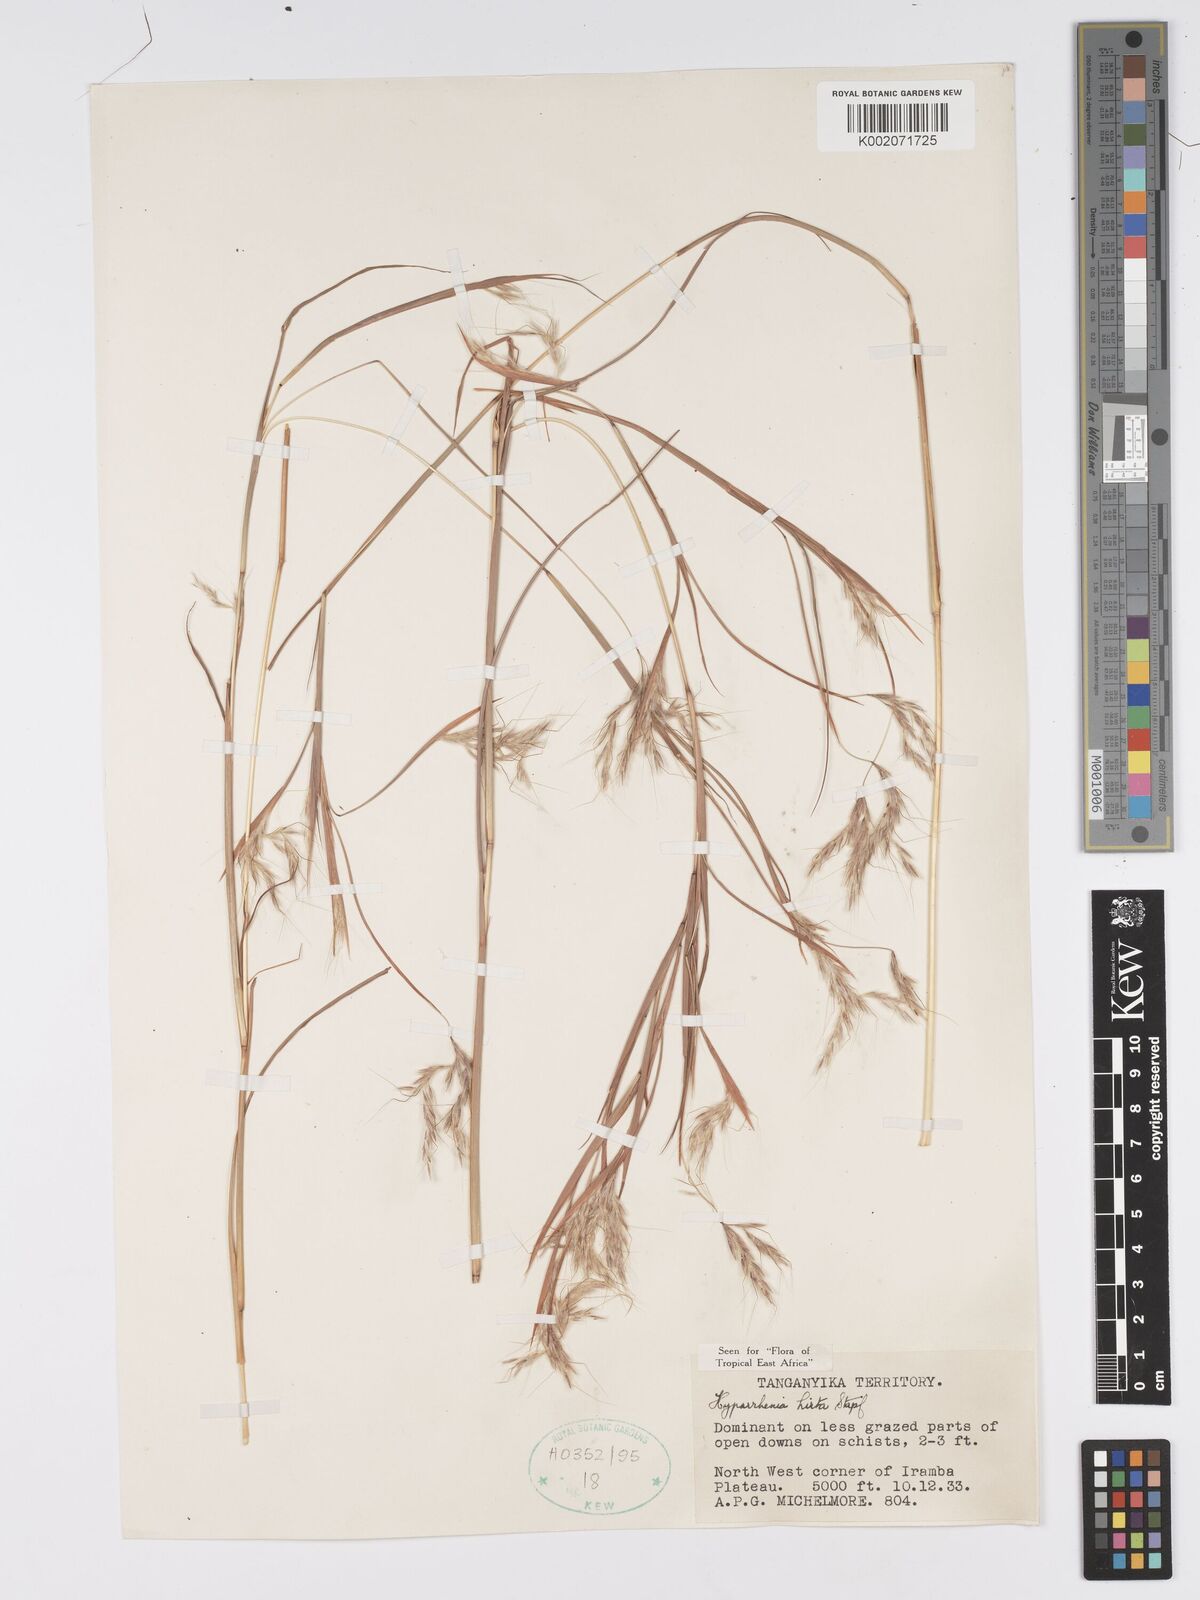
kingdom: Plantae
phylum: Tracheophyta
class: Liliopsida
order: Poales
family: Poaceae
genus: Hyparrhenia
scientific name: Hyparrhenia hirta
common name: Thatching grass
